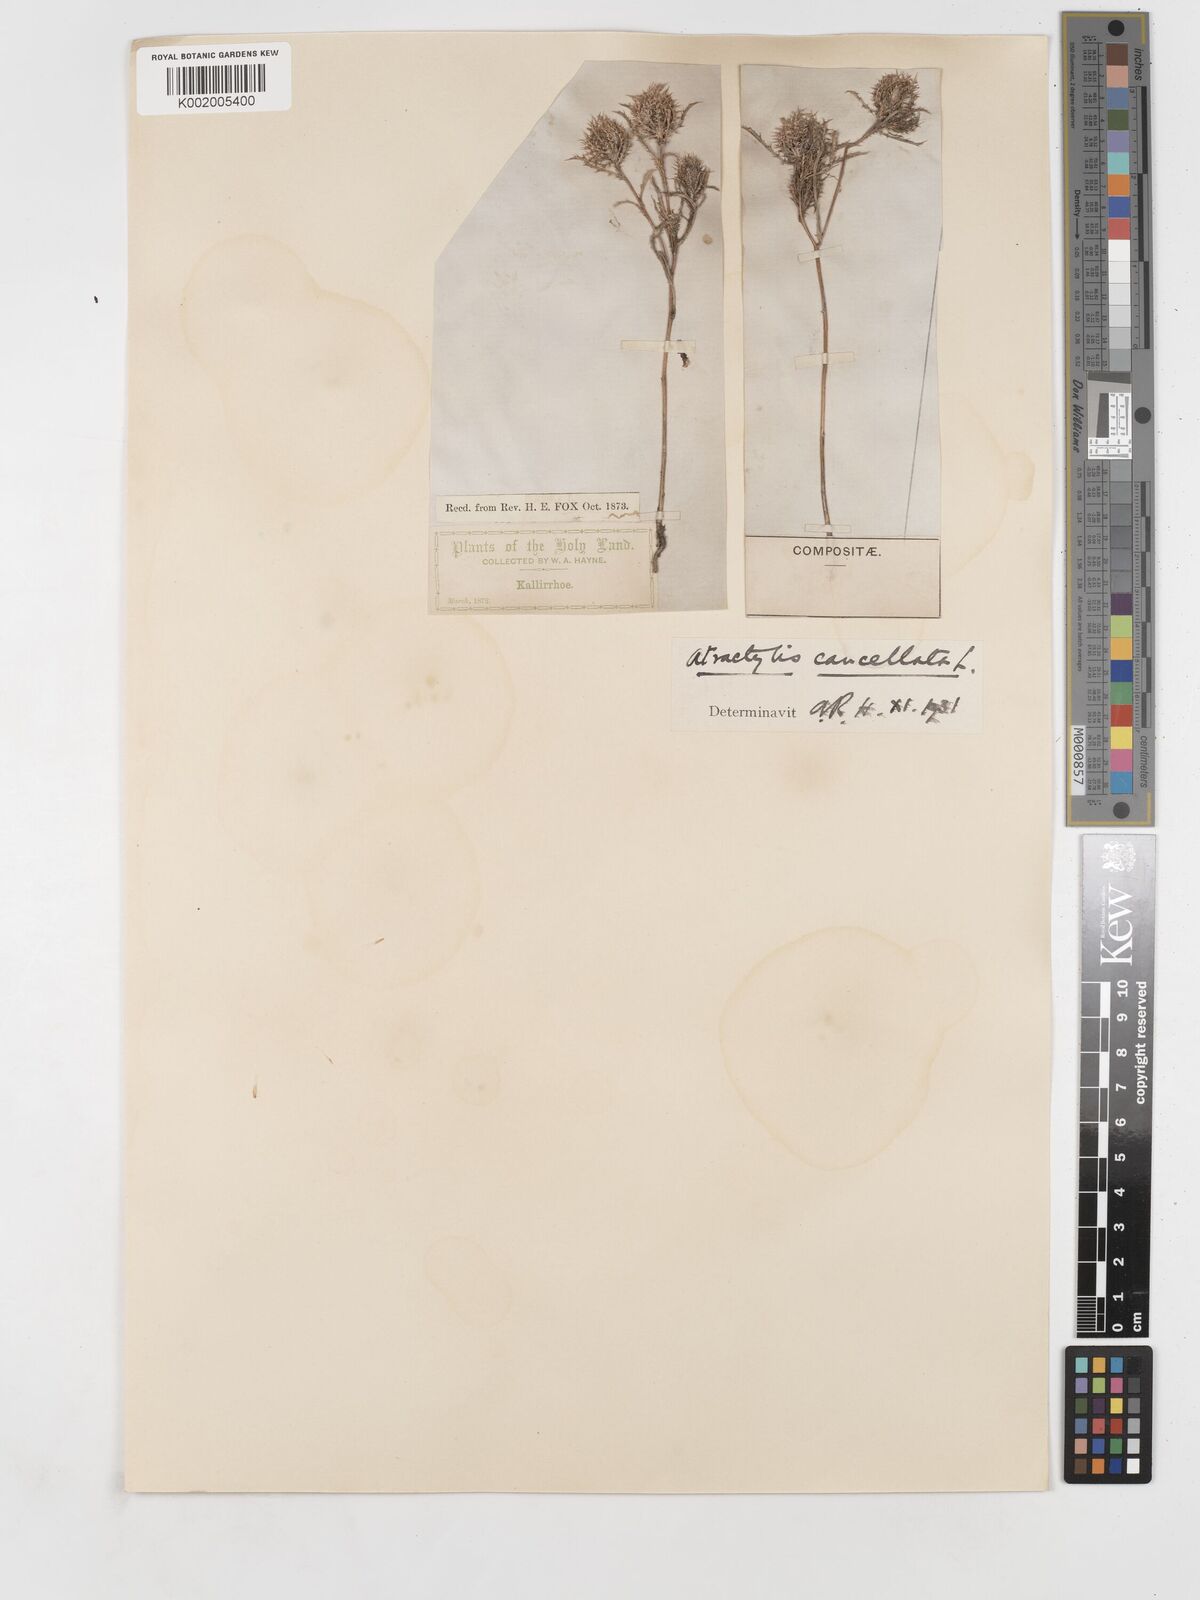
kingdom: Plantae
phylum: Tracheophyta
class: Magnoliopsida
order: Asterales
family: Asteraceae
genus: Atractylis
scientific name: Atractylis cancellata
